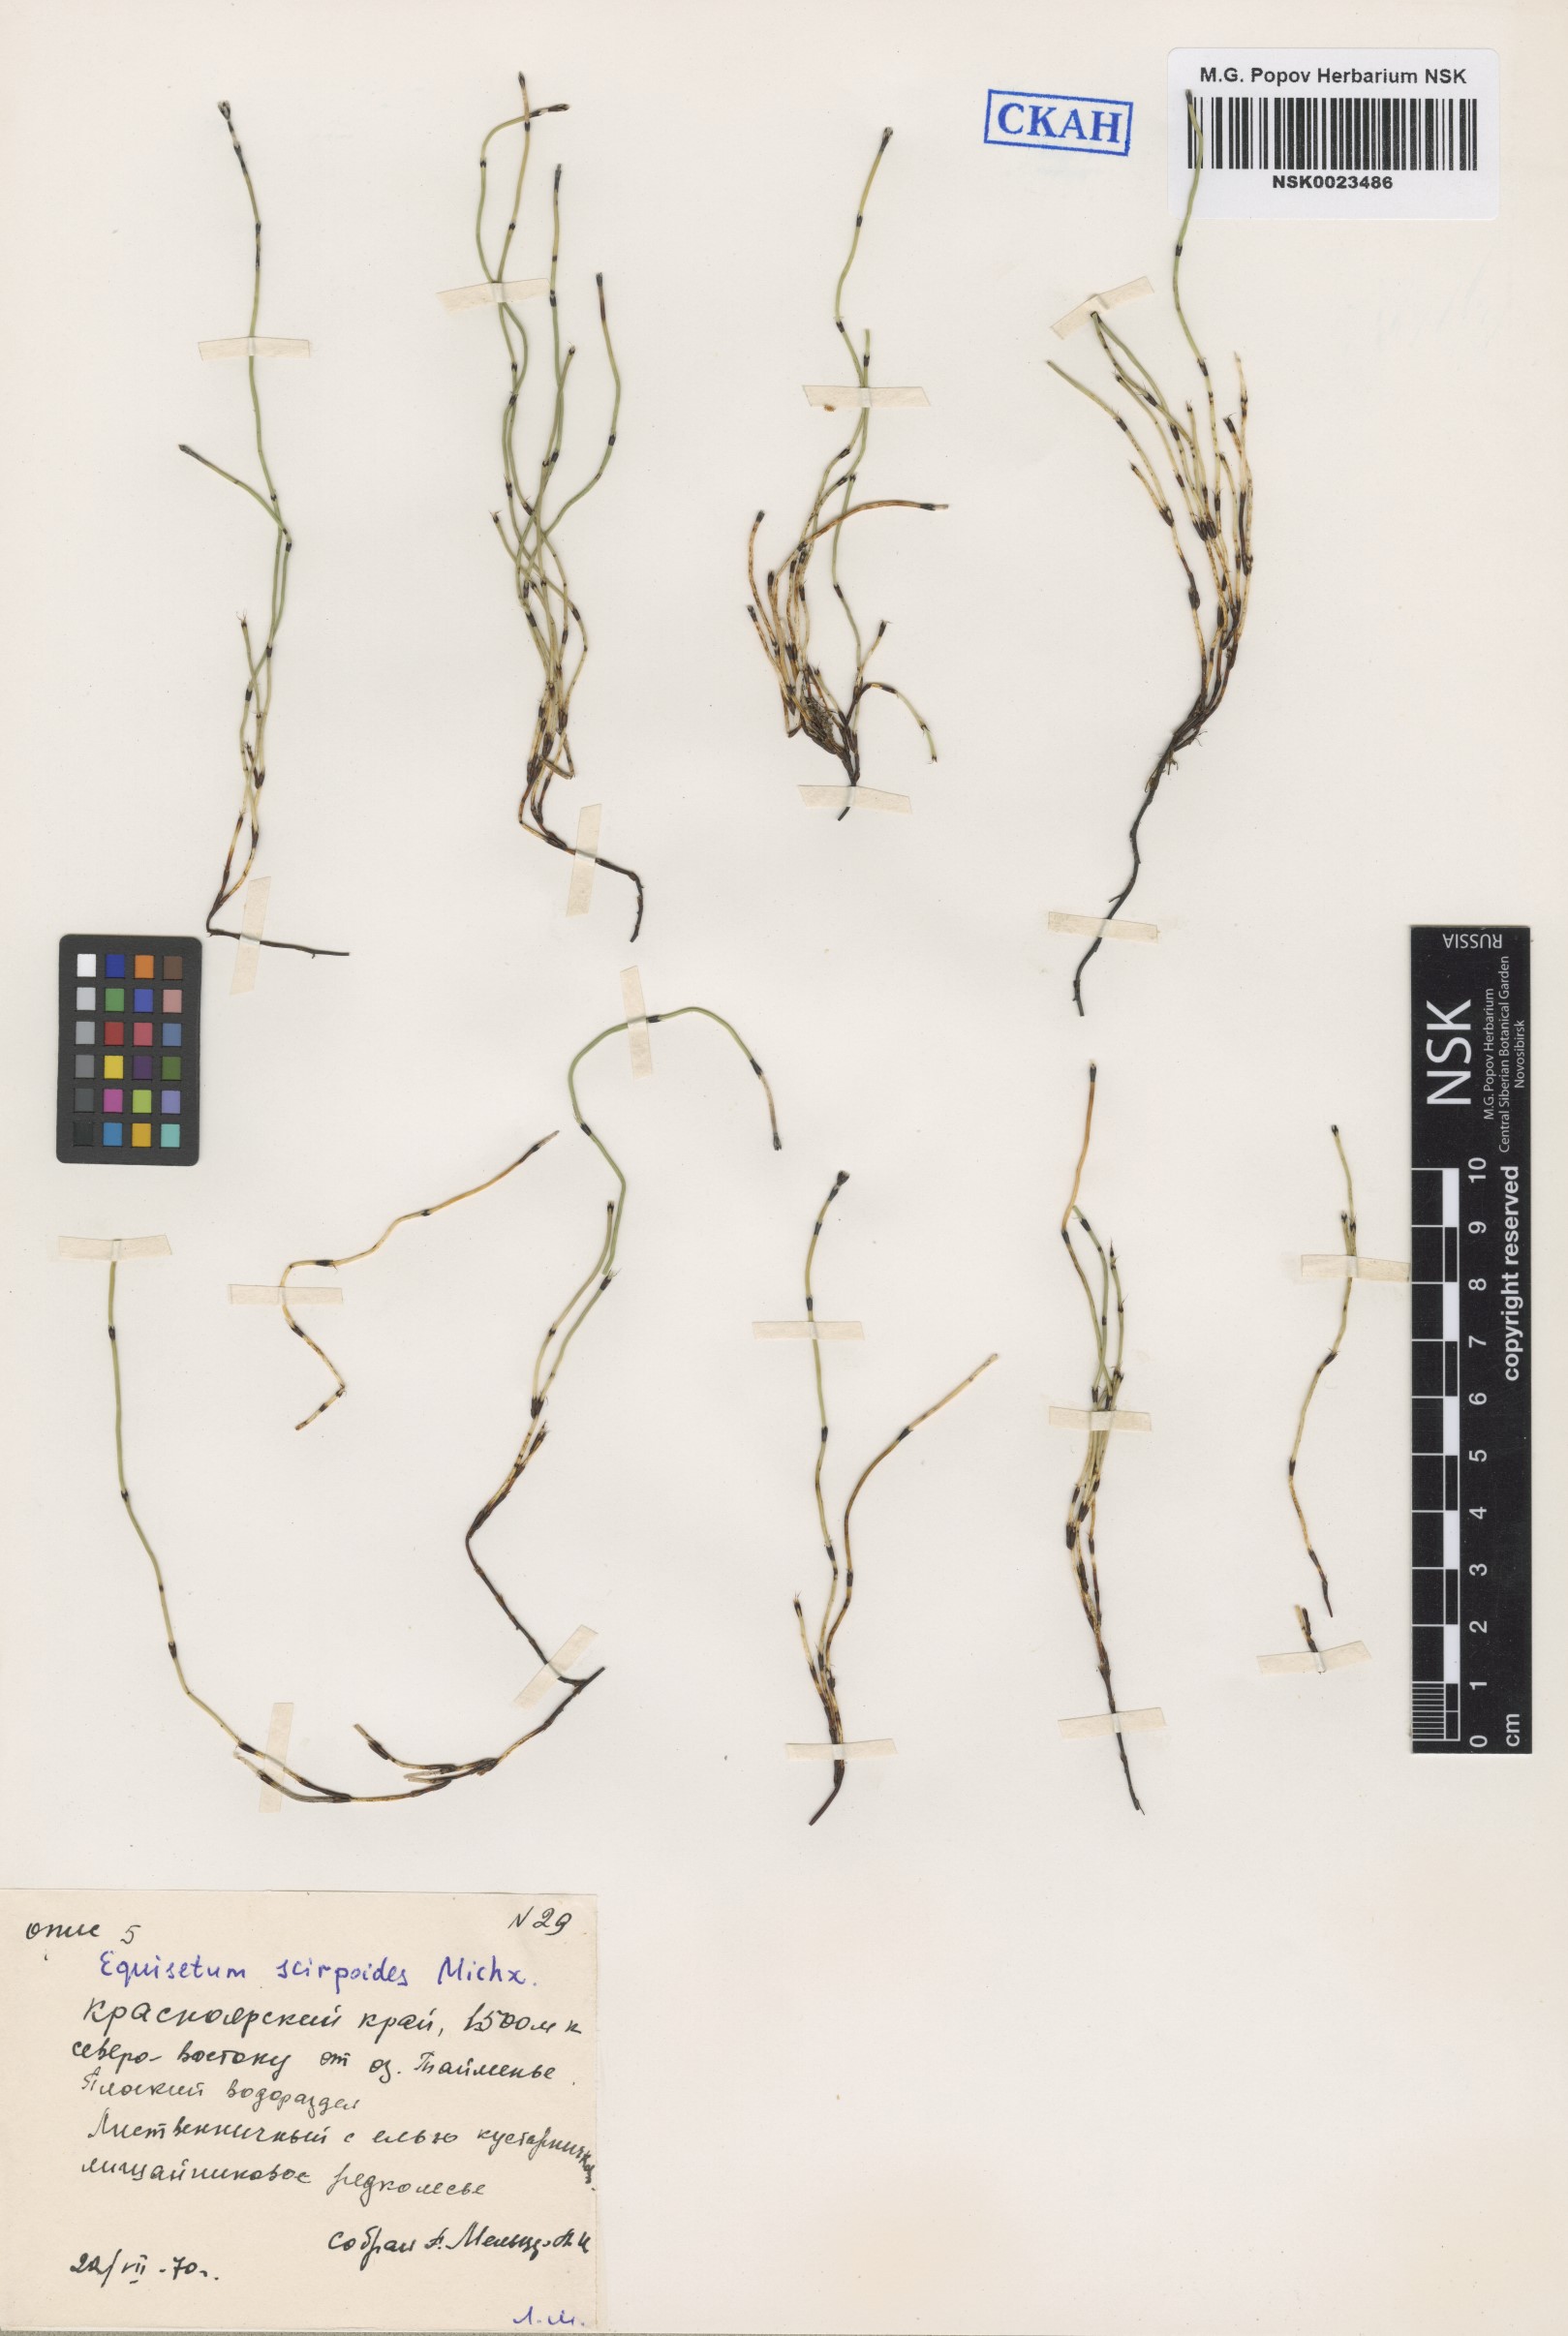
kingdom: Plantae
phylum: Tracheophyta
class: Polypodiopsida
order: Equisetales
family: Equisetaceae
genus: Equisetum
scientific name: Equisetum scirpoides
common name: Delicate horsetail
